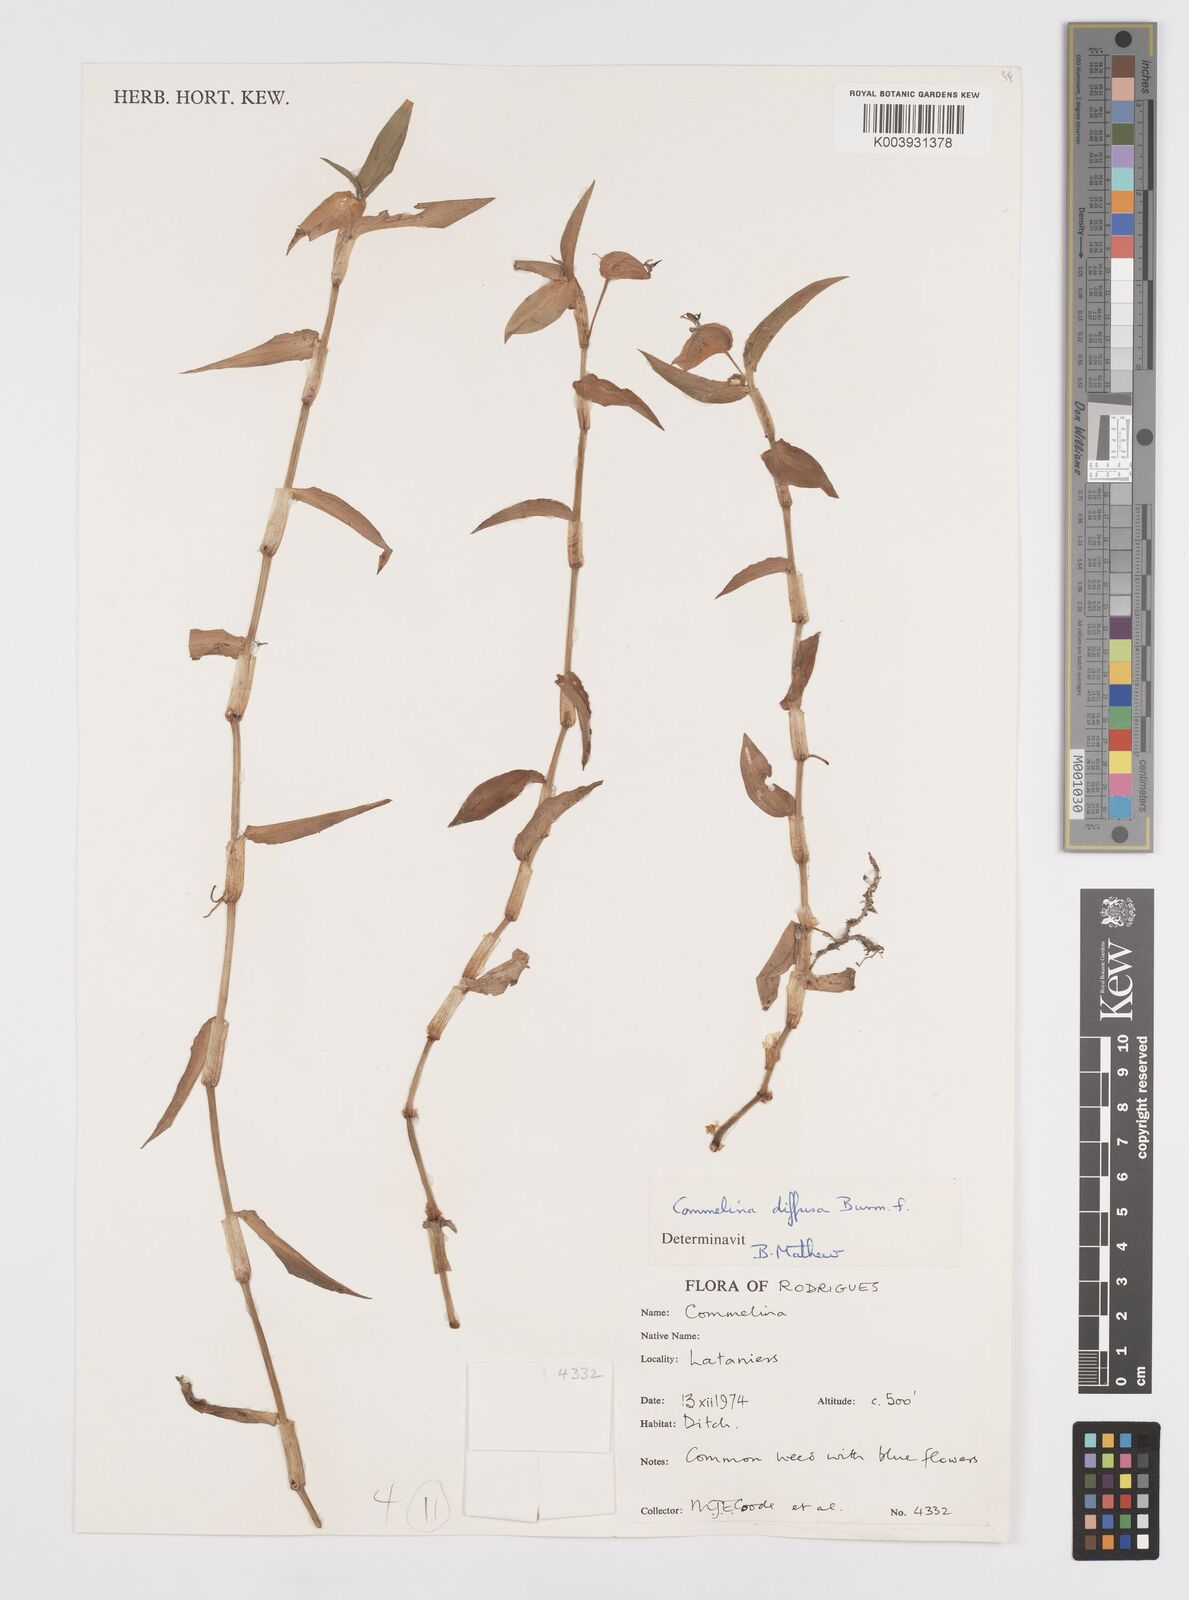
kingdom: Plantae
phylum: Tracheophyta
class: Liliopsida
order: Commelinales
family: Commelinaceae
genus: Murdannia
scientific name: Murdannia nudiflora
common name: Nakedstem dewflower
